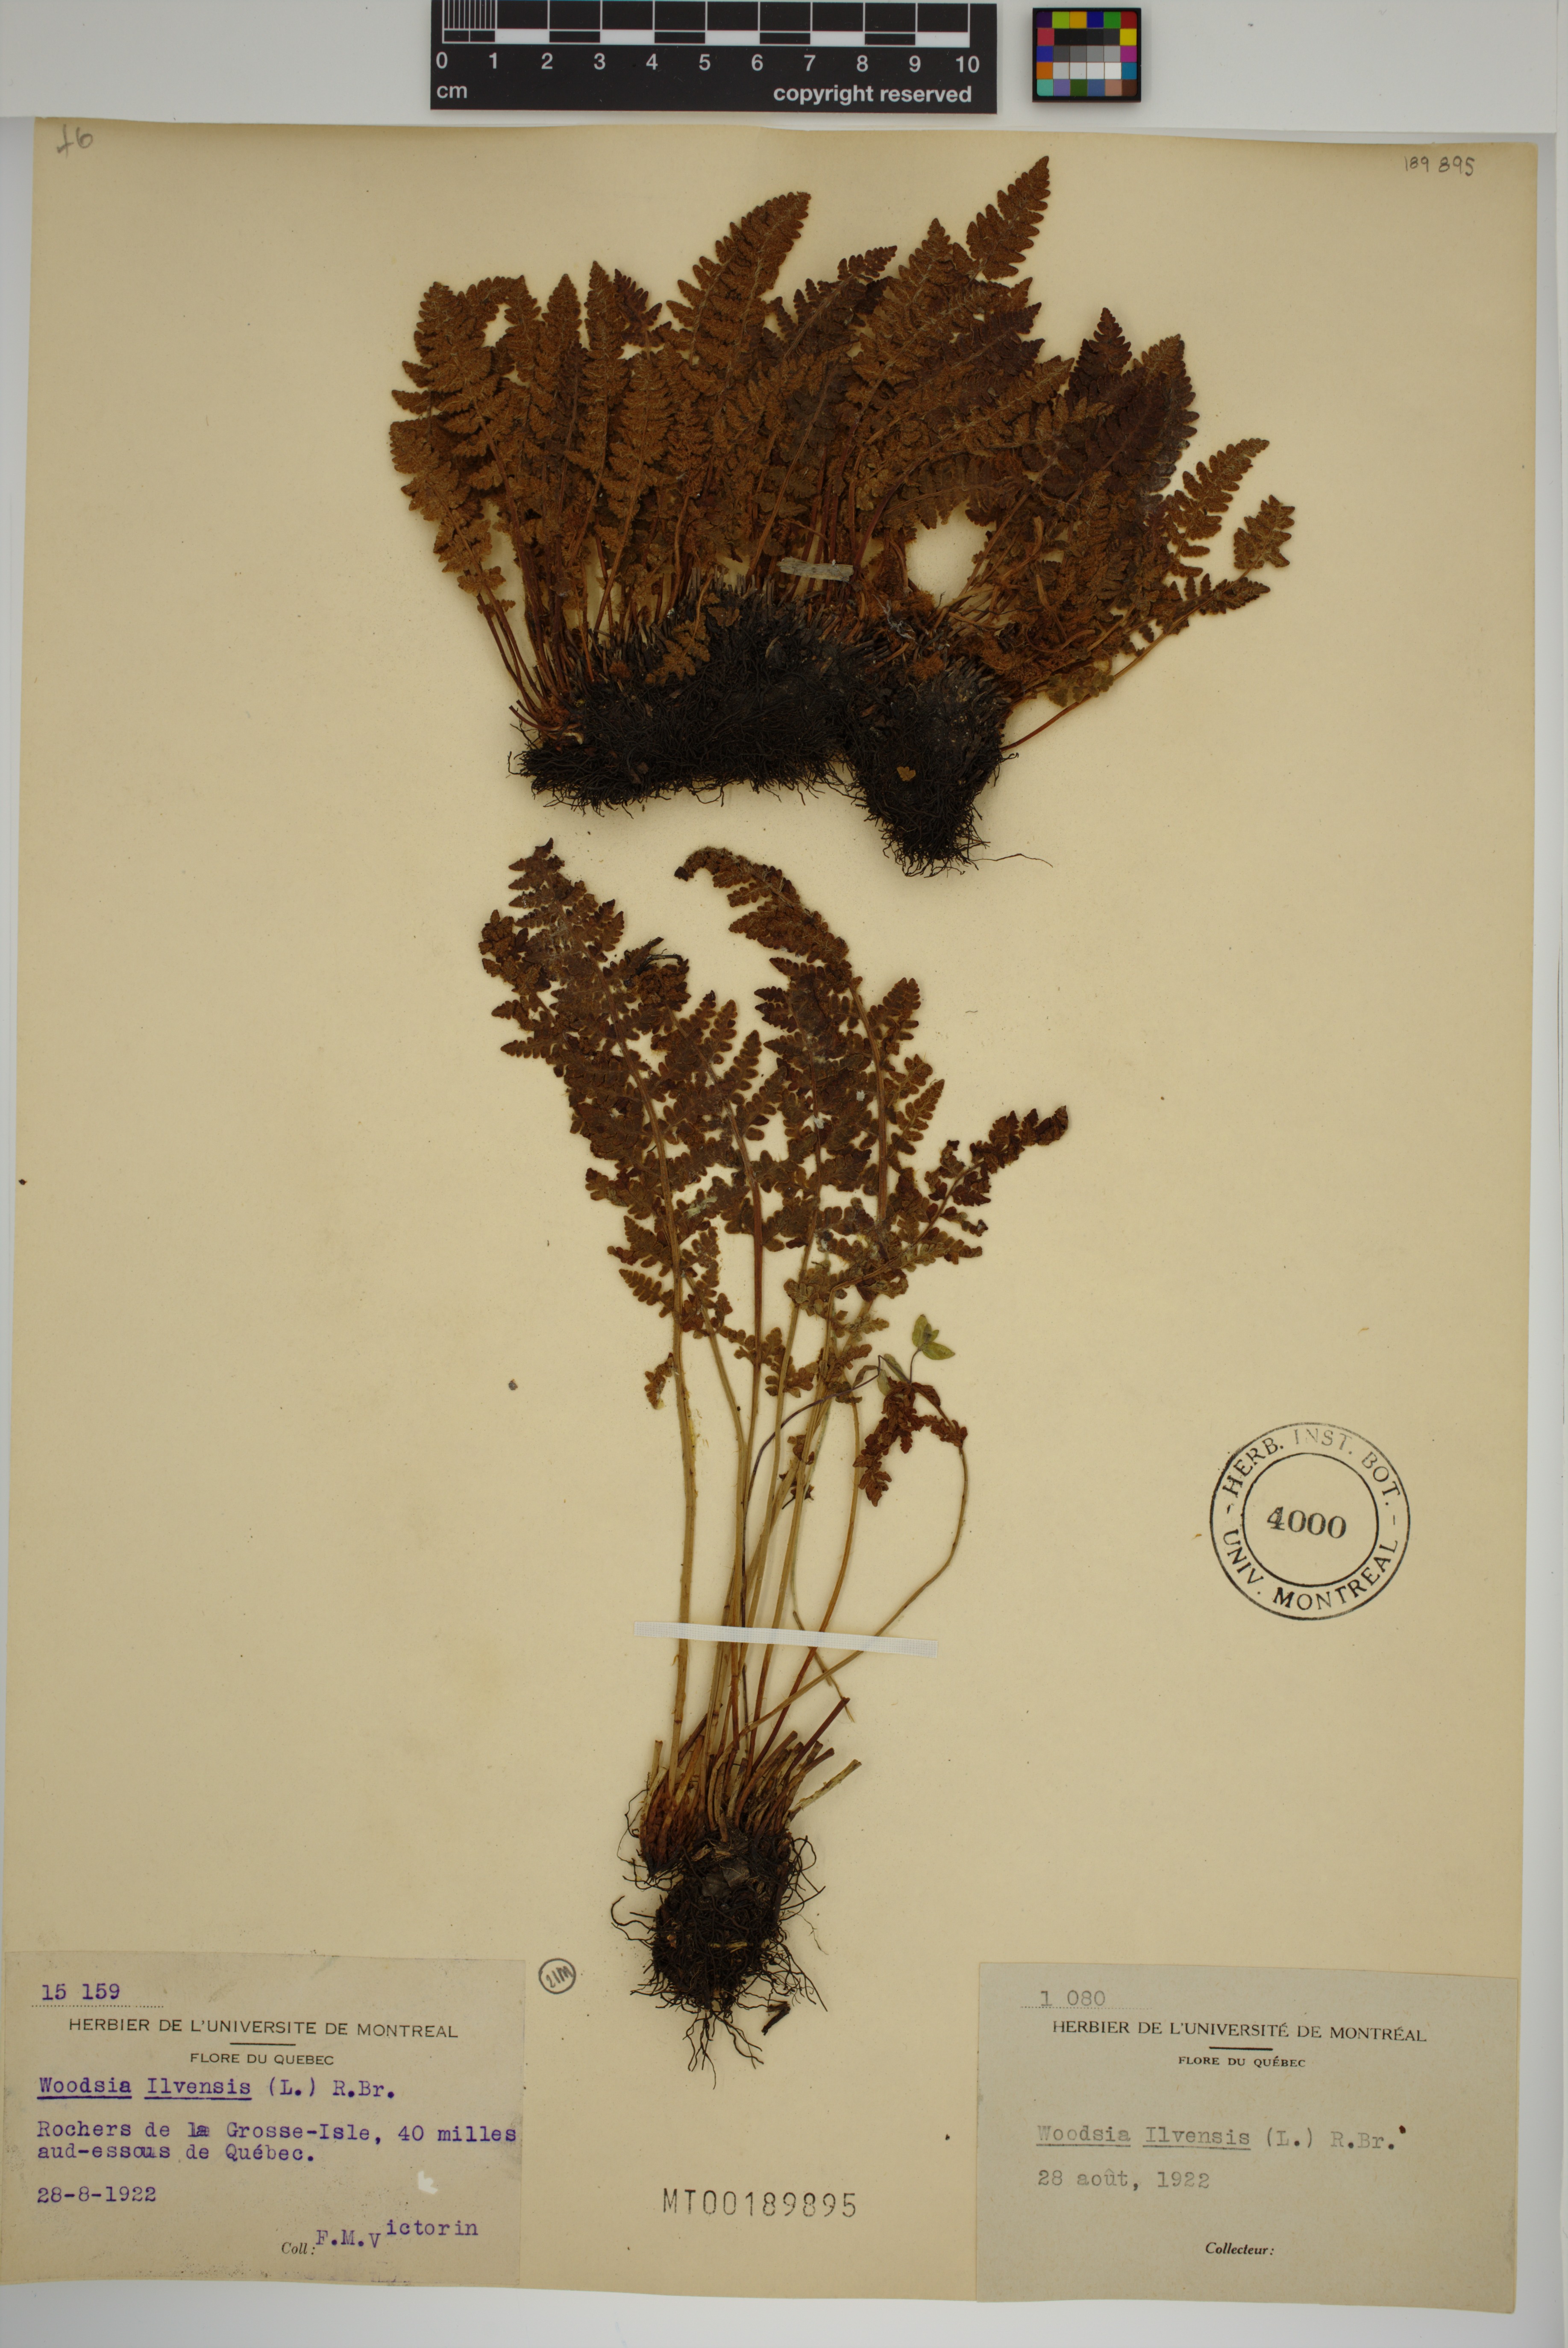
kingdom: Plantae
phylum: Tracheophyta
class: Polypodiopsida
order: Polypodiales
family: Woodsiaceae
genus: Woodsia
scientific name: Woodsia ilvensis
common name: Fragrant woodsia
